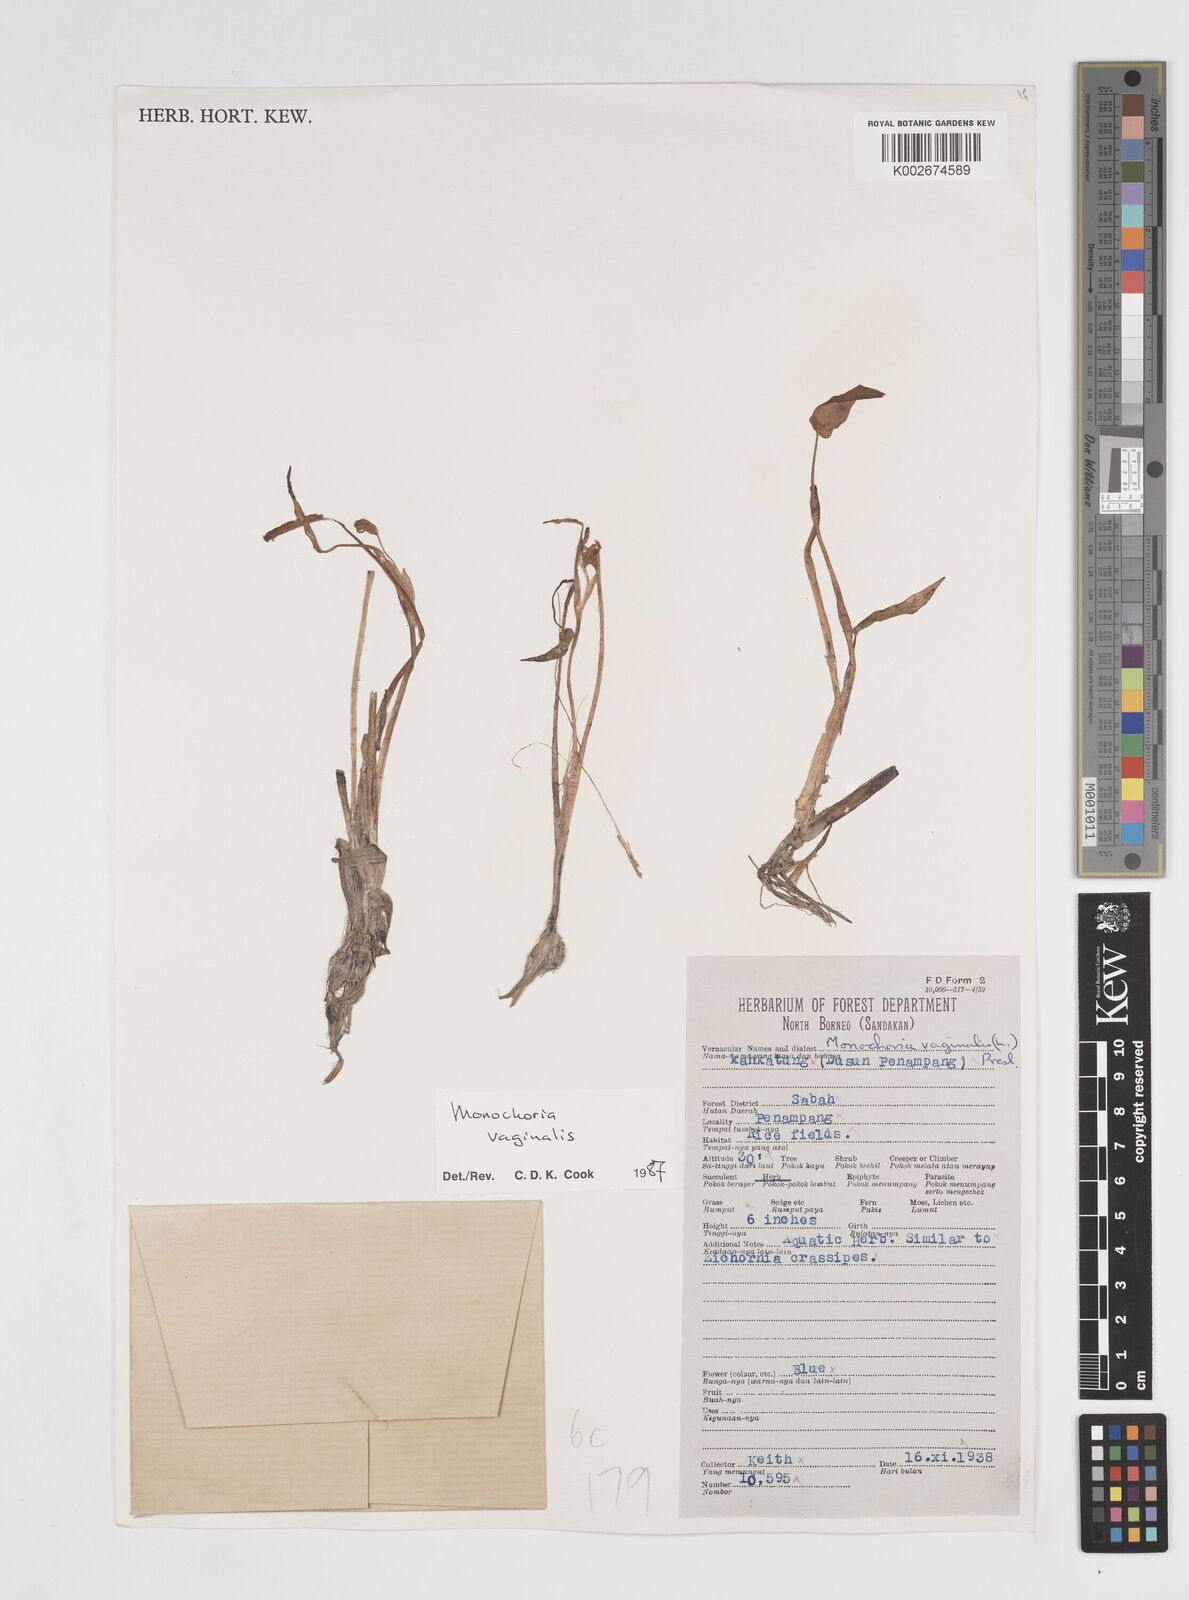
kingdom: Plantae
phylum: Tracheophyta
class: Liliopsida
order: Commelinales
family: Pontederiaceae
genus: Pontederia
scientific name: Pontederia vaginalis
